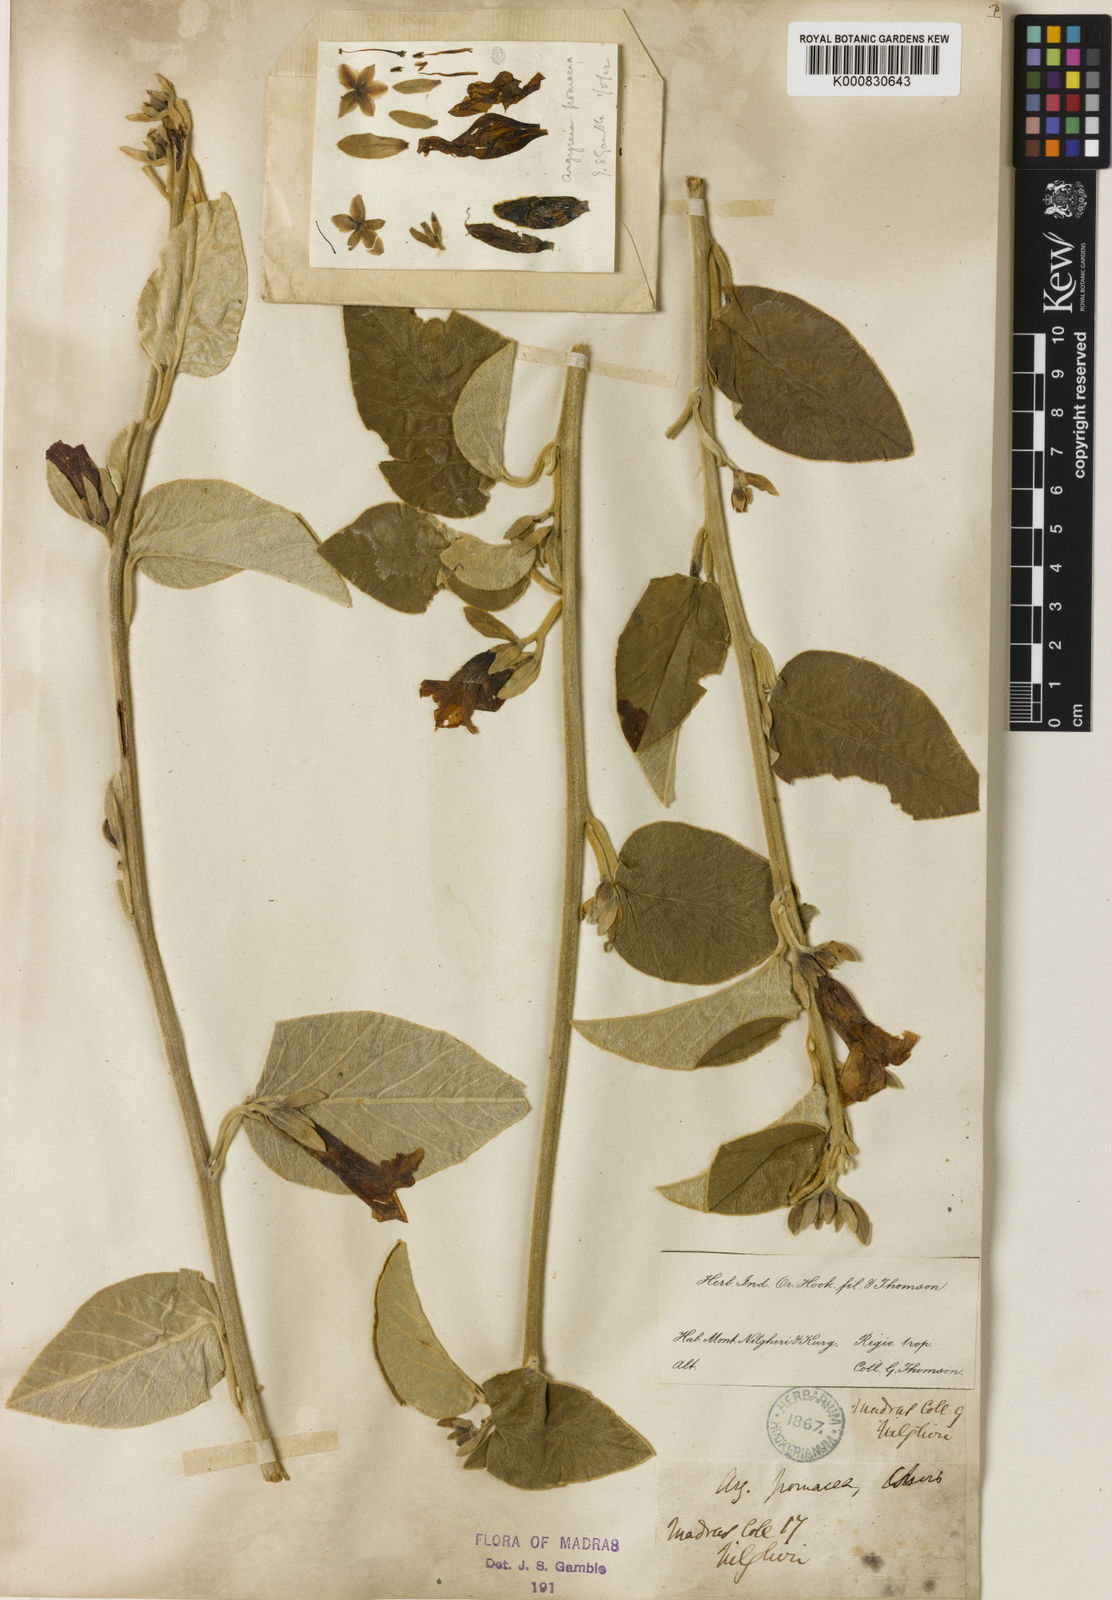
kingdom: Plantae
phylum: Tracheophyta
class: Magnoliopsida
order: Solanales
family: Convolvulaceae
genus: Argyreia
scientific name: Argyreia
